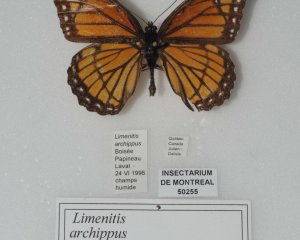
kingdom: Animalia
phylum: Arthropoda
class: Insecta
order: Lepidoptera
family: Nymphalidae
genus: Limenitis
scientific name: Limenitis archippus
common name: Viceroy
